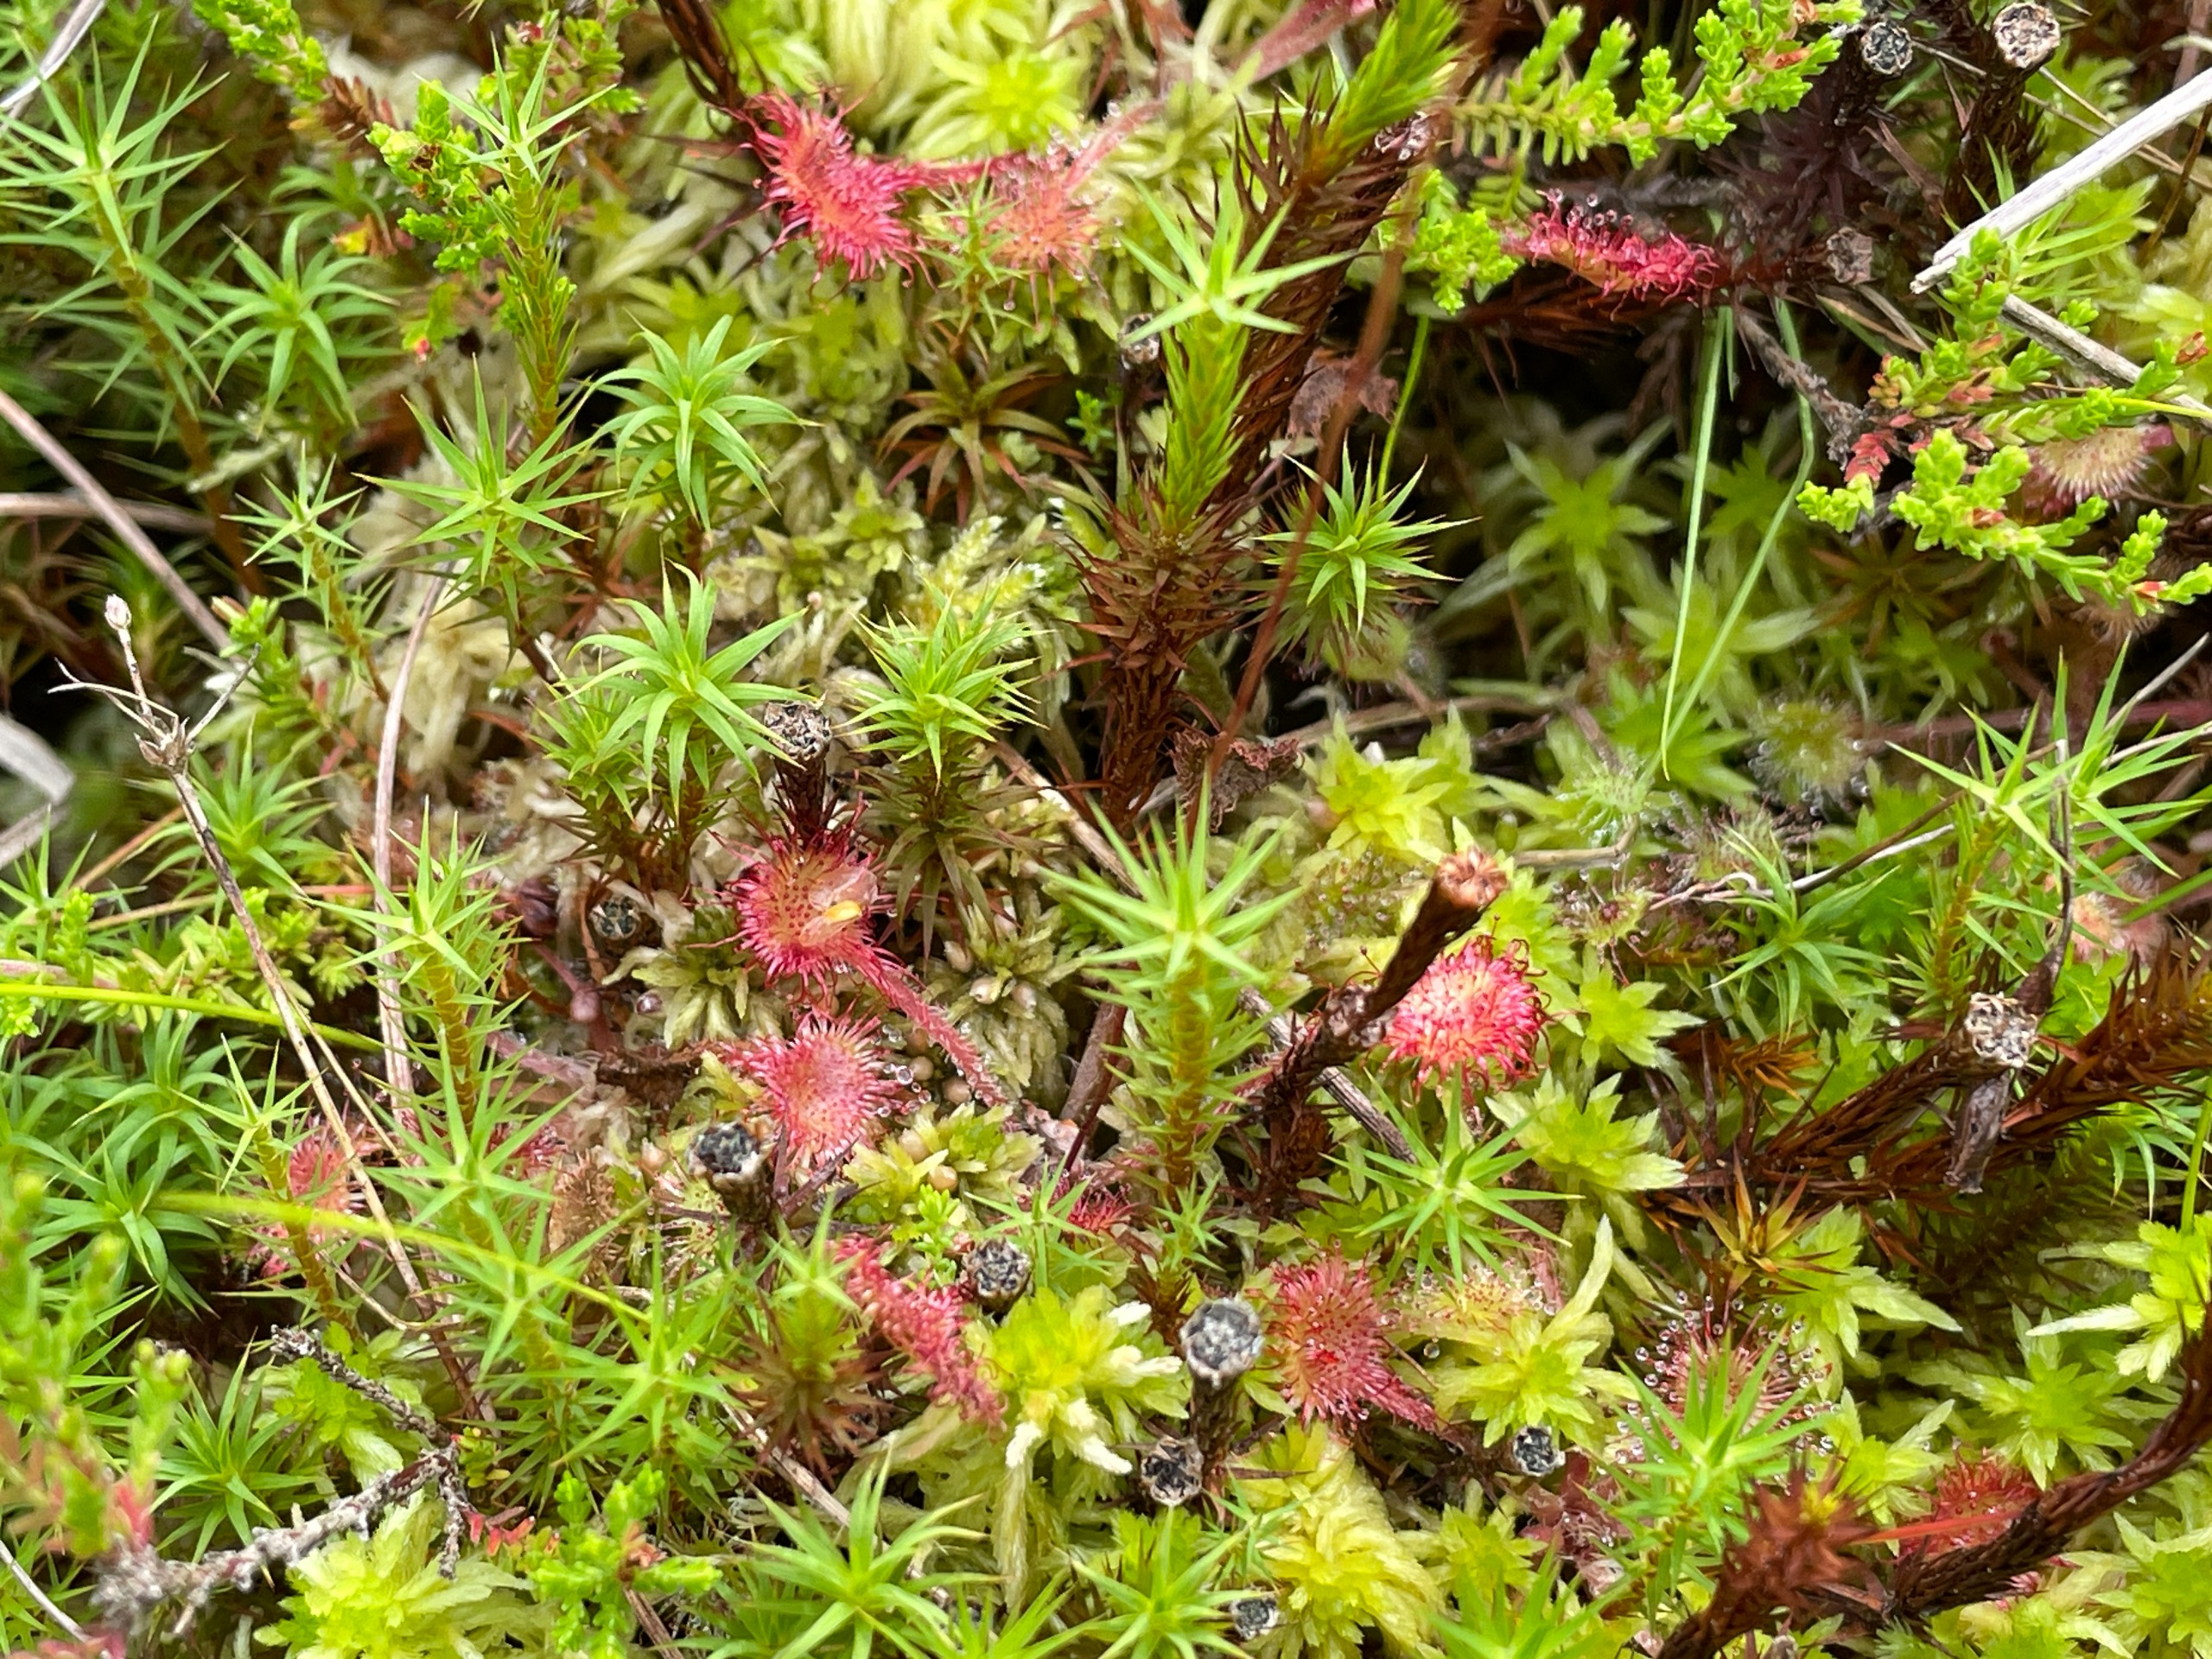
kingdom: Plantae
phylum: Tracheophyta
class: Magnoliopsida
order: Caryophyllales
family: Droseraceae
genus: Drosera
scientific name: Drosera rotundifolia
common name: Rundbladet soldug
